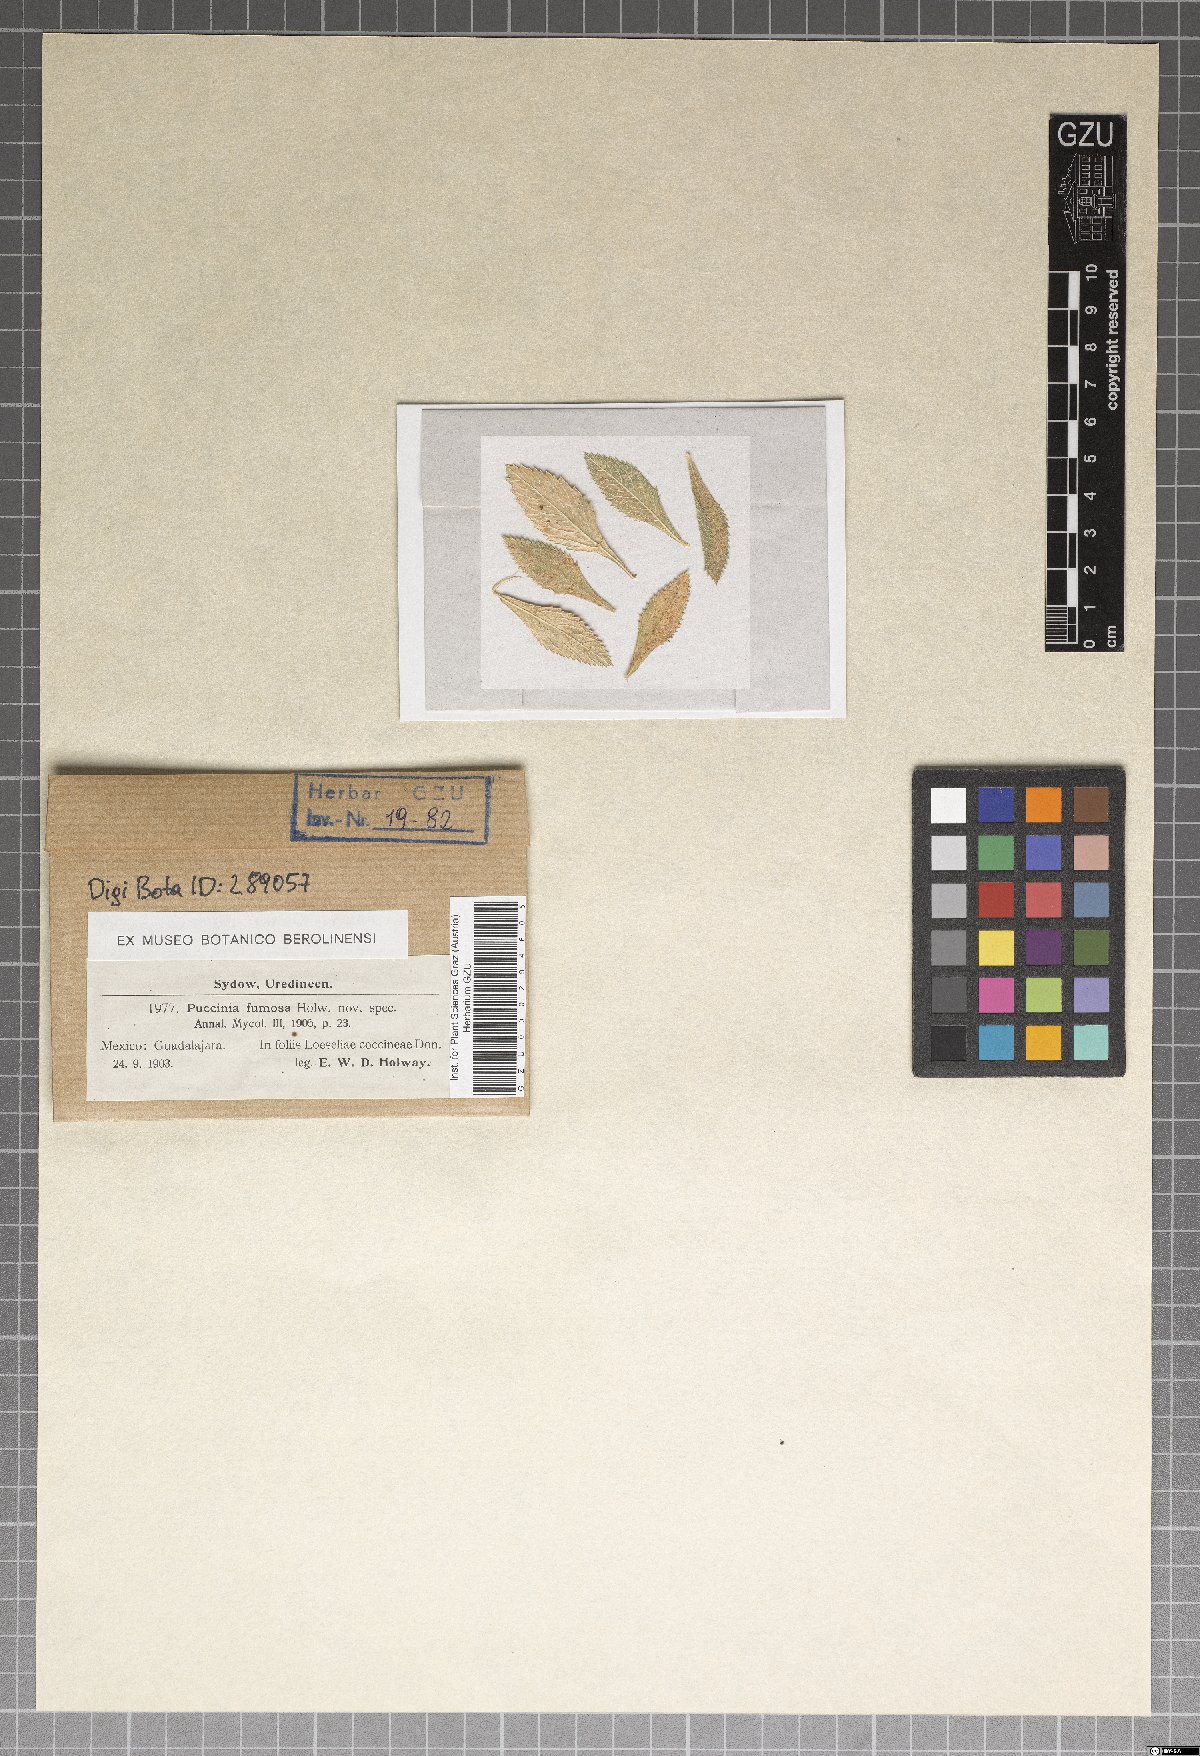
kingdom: Fungi
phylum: Basidiomycota
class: Pucciniomycetes
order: Pucciniales
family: Pucciniaceae
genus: Puccinia
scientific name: Puccinia fumosa
